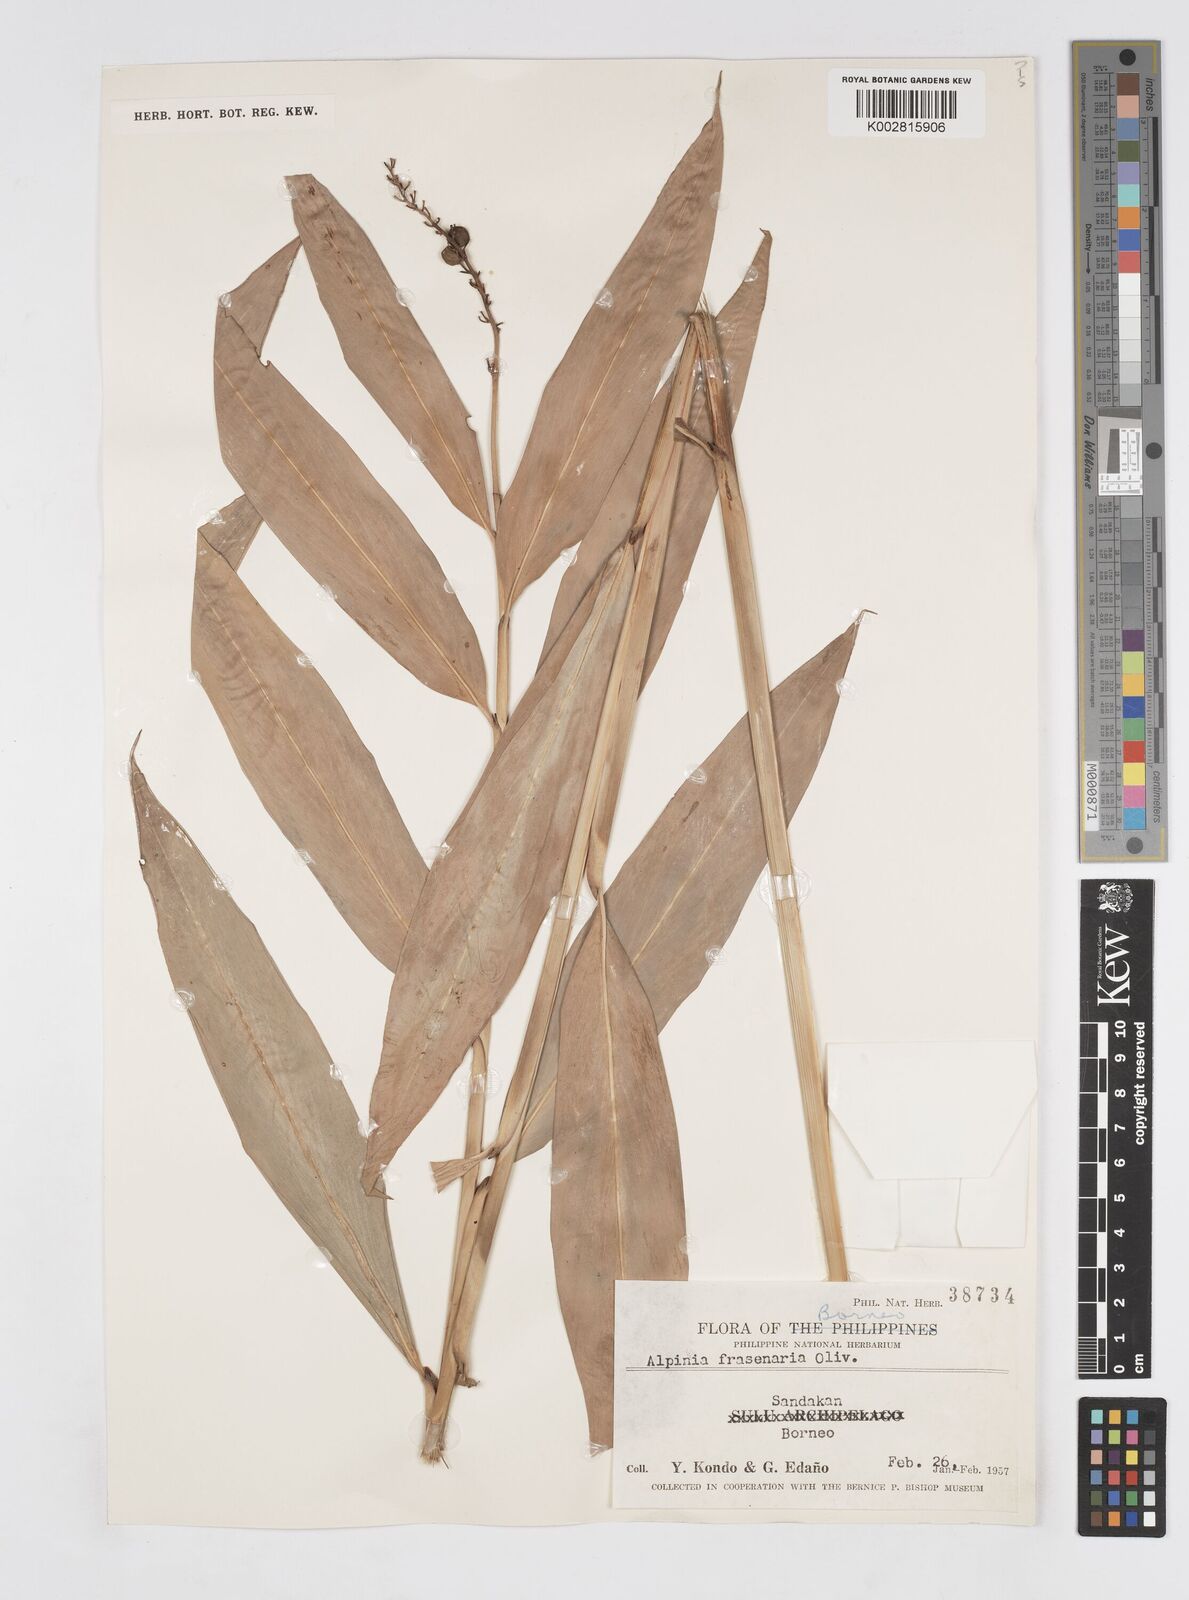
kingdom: Plantae
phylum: Tracheophyta
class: Liliopsida
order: Zingiberales
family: Zingiberaceae
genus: Alpinia
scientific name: Alpinia aquatica
